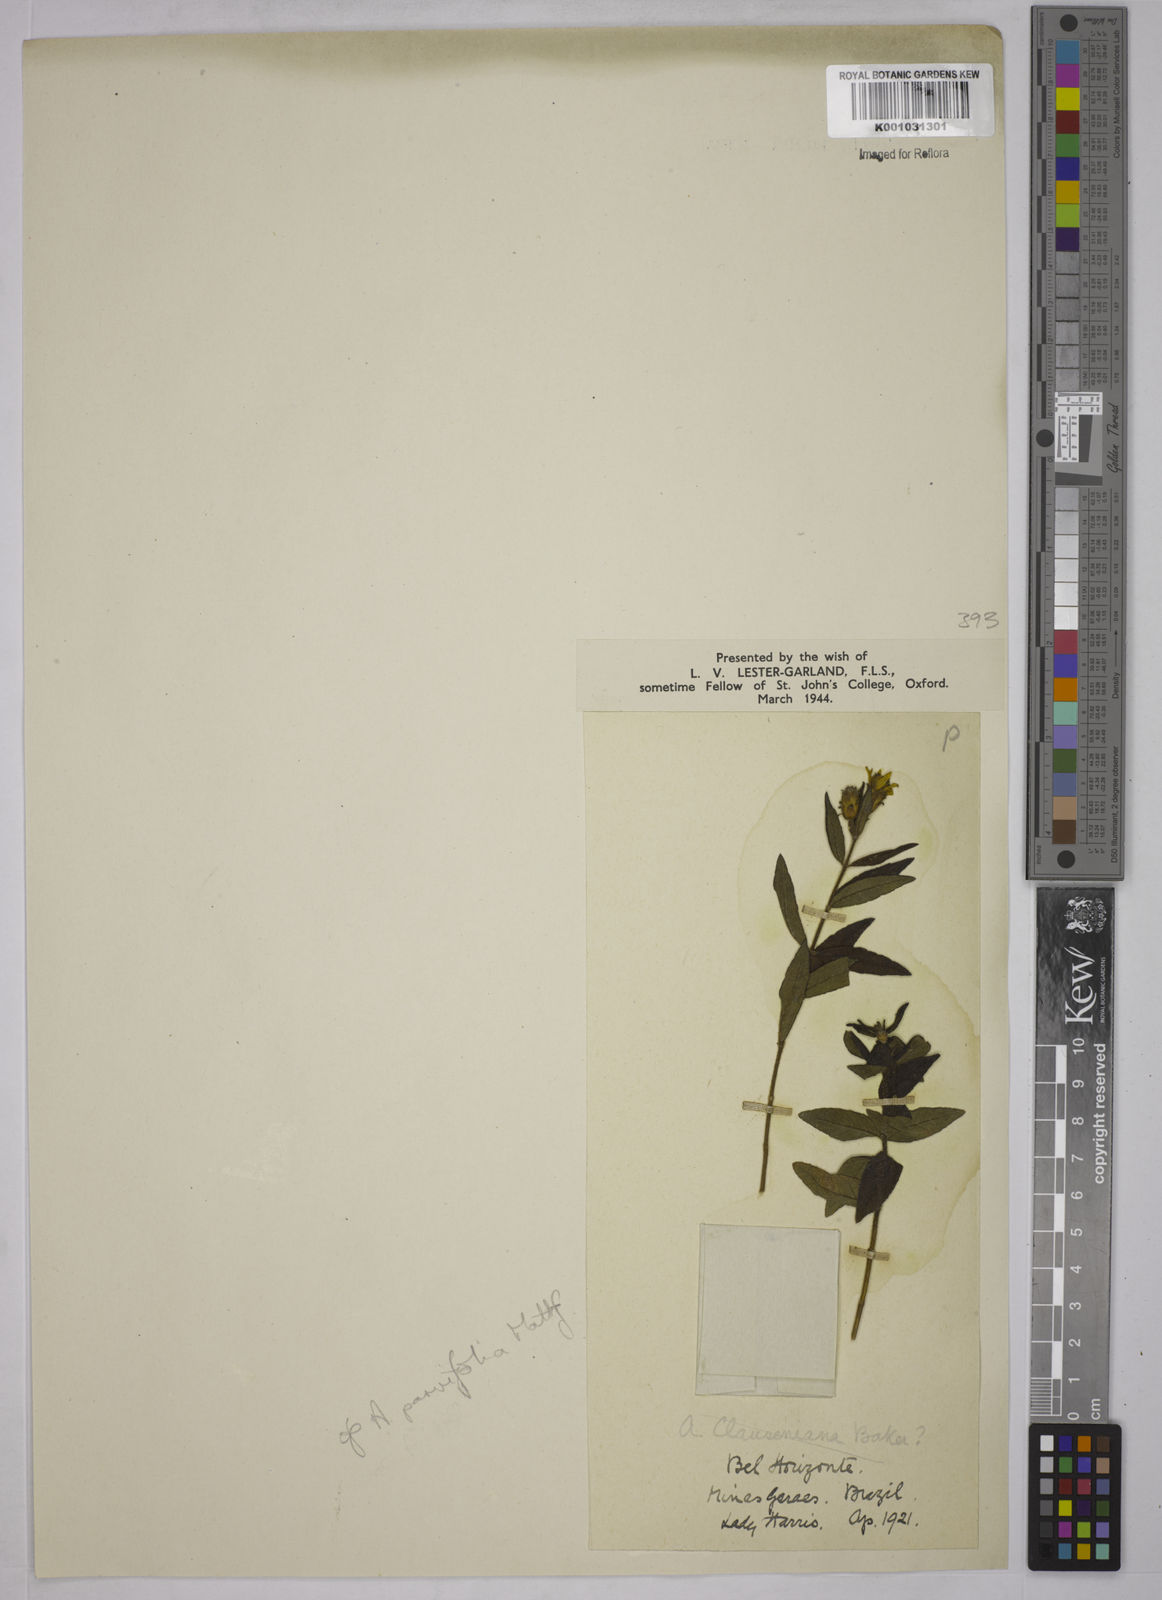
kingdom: Plantae
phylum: Tracheophyta
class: Magnoliopsida
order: Asterales
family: Asteraceae
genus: Aspilia
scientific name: Aspilia foliosa
